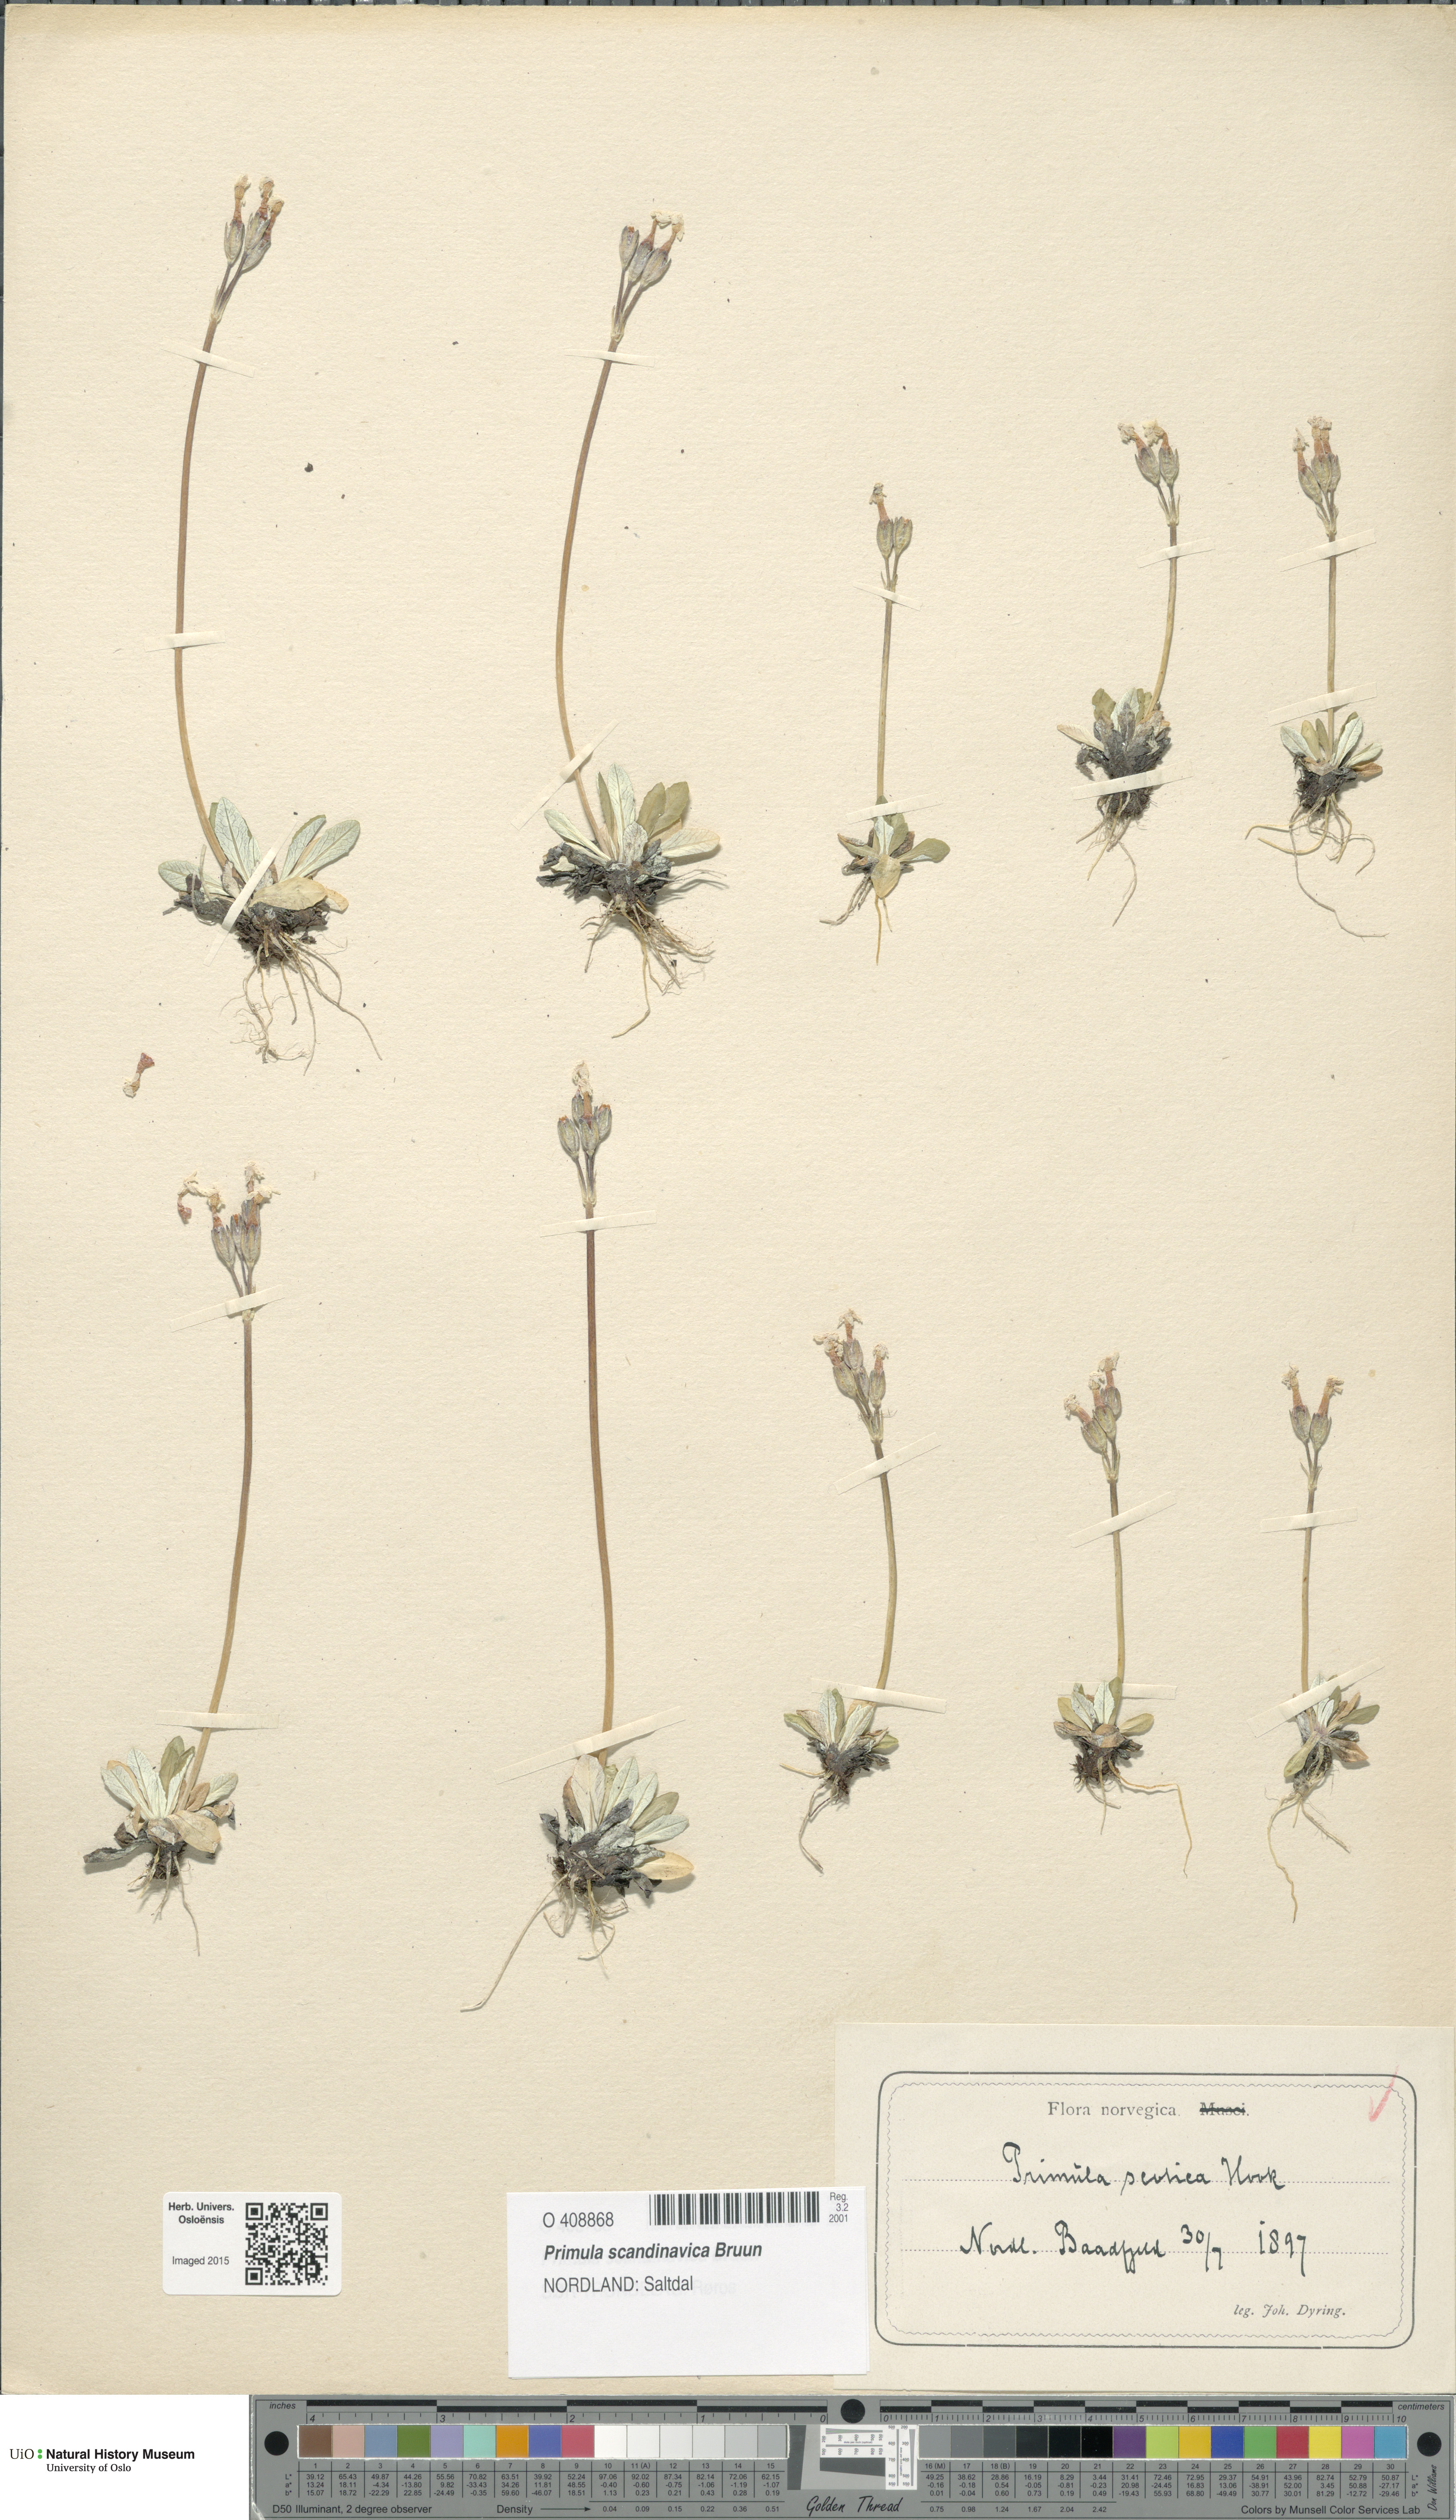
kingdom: Plantae
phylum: Tracheophyta
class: Magnoliopsida
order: Ericales
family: Primulaceae
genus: Primula
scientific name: Primula scandinavica
